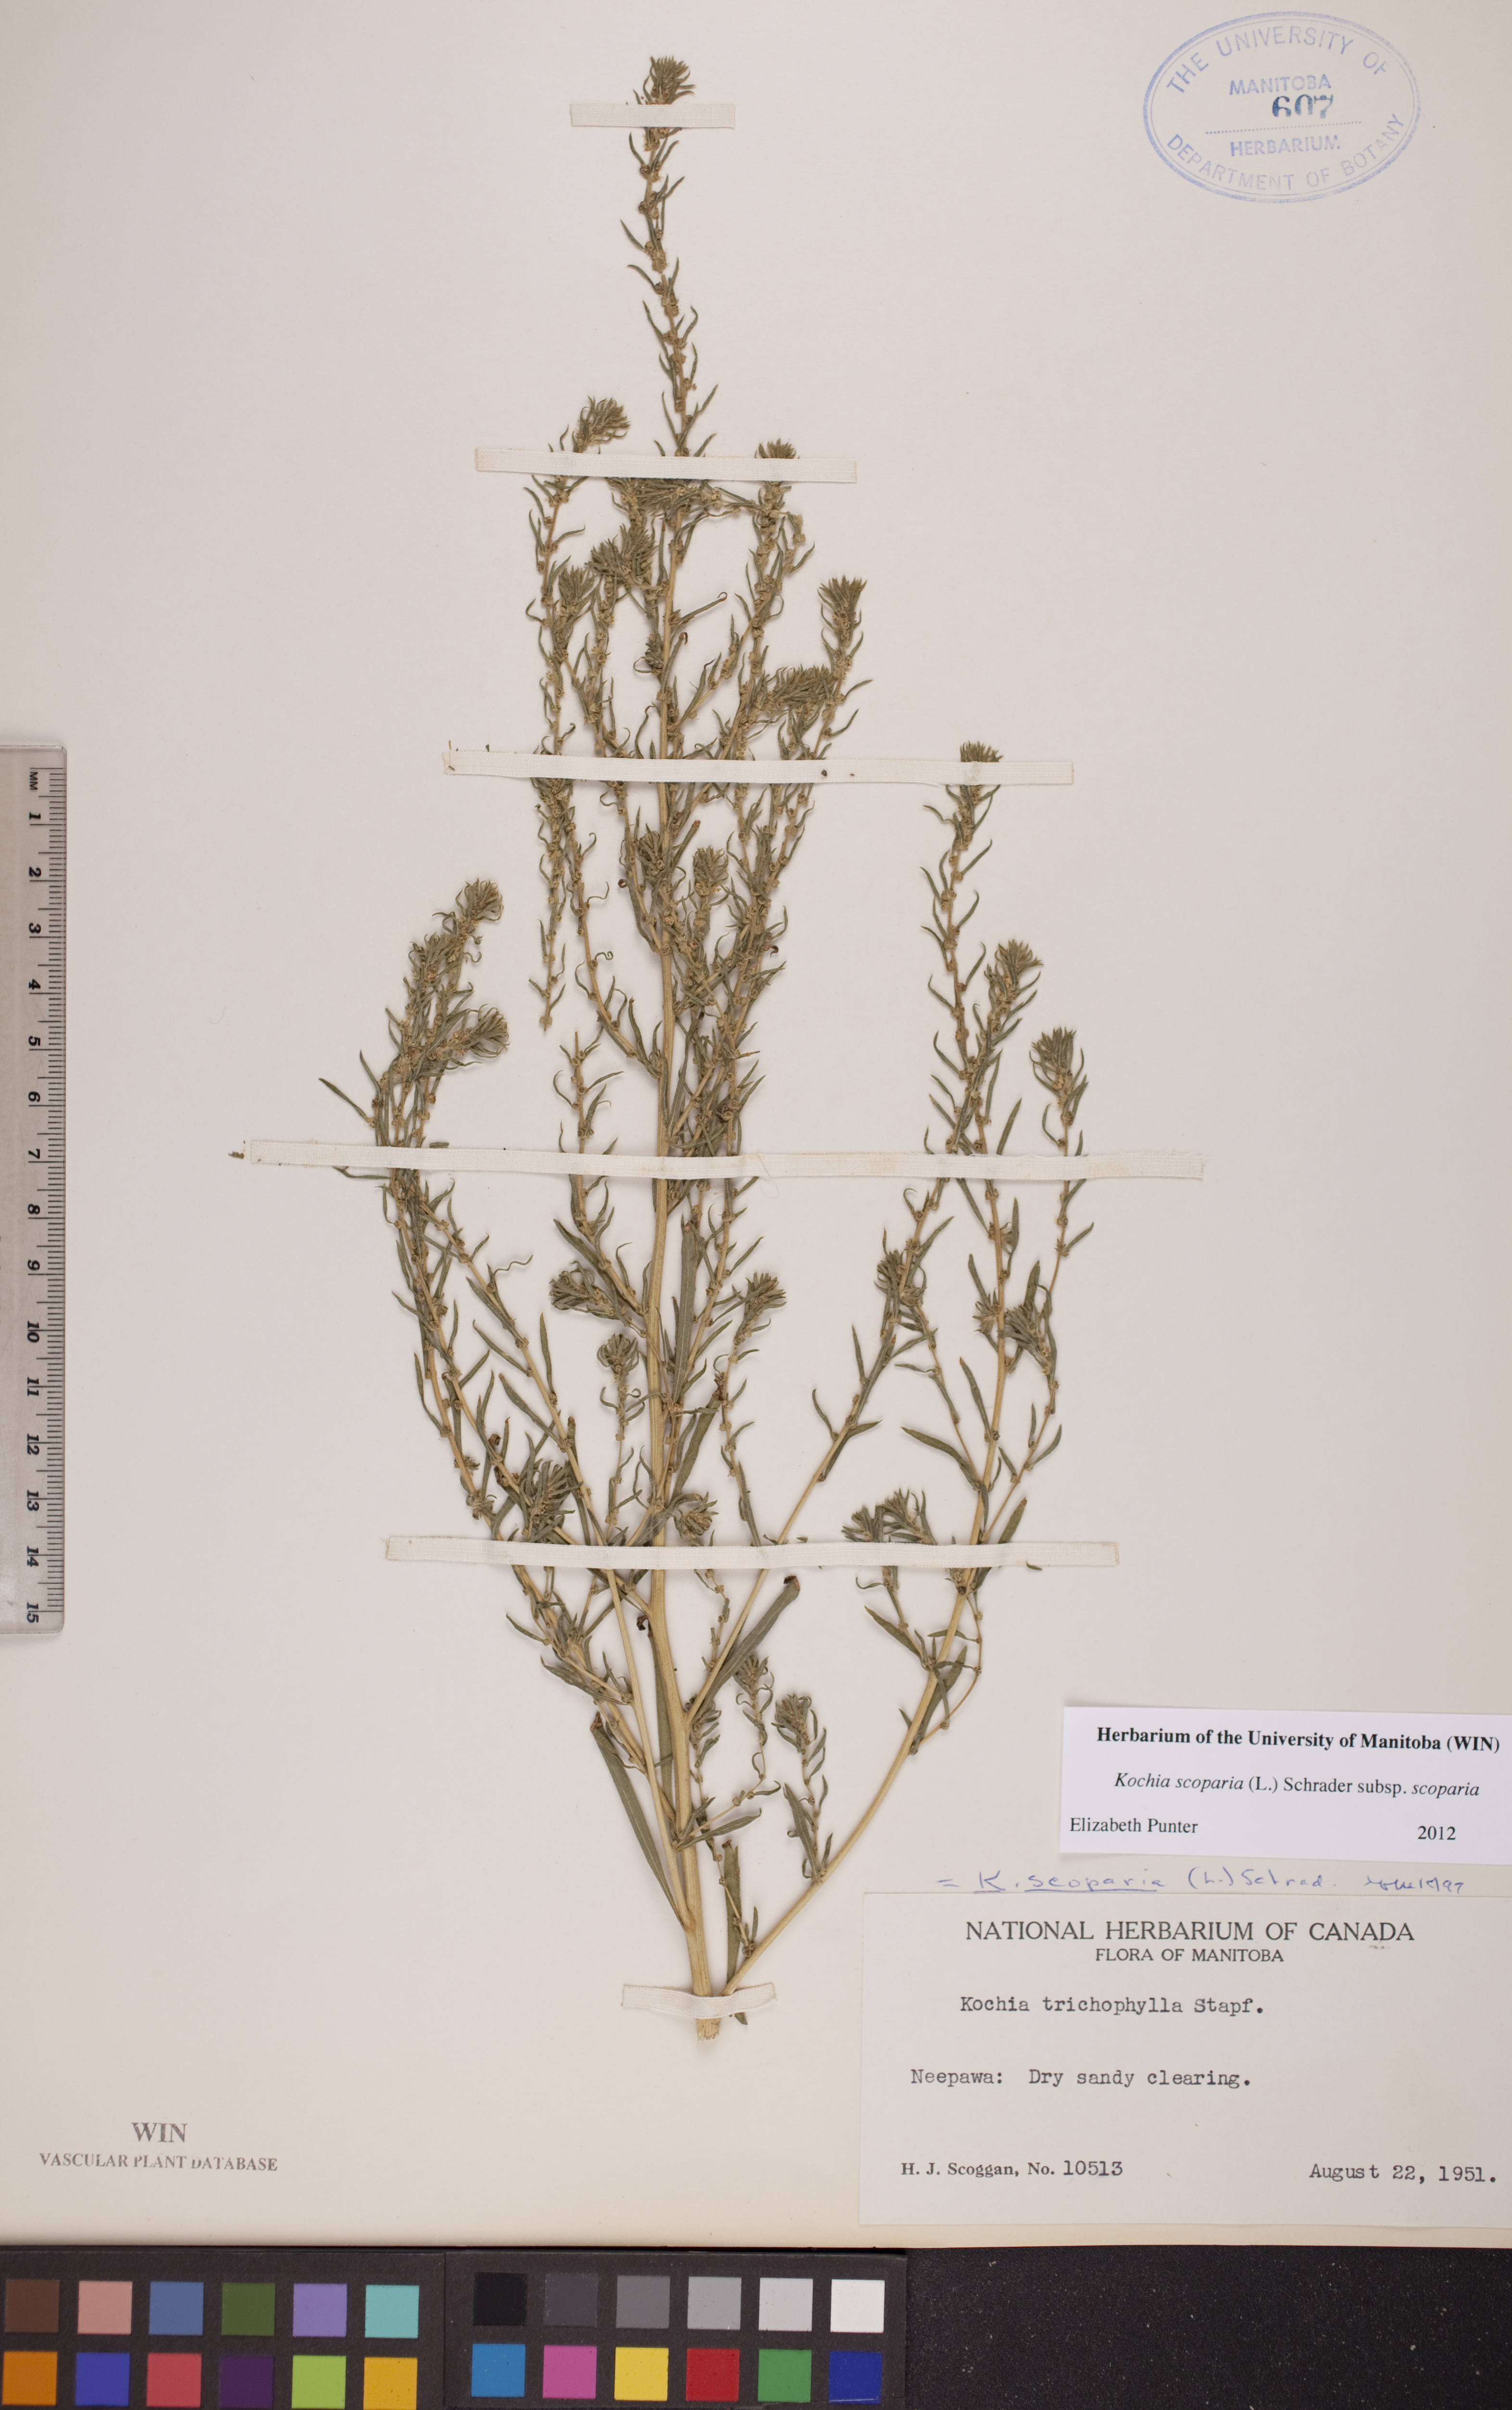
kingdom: Plantae
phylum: Tracheophyta
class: Magnoliopsida
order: Caryophyllales
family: Amaranthaceae
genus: Bassia
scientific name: Bassia scoparia
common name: Belvedere
